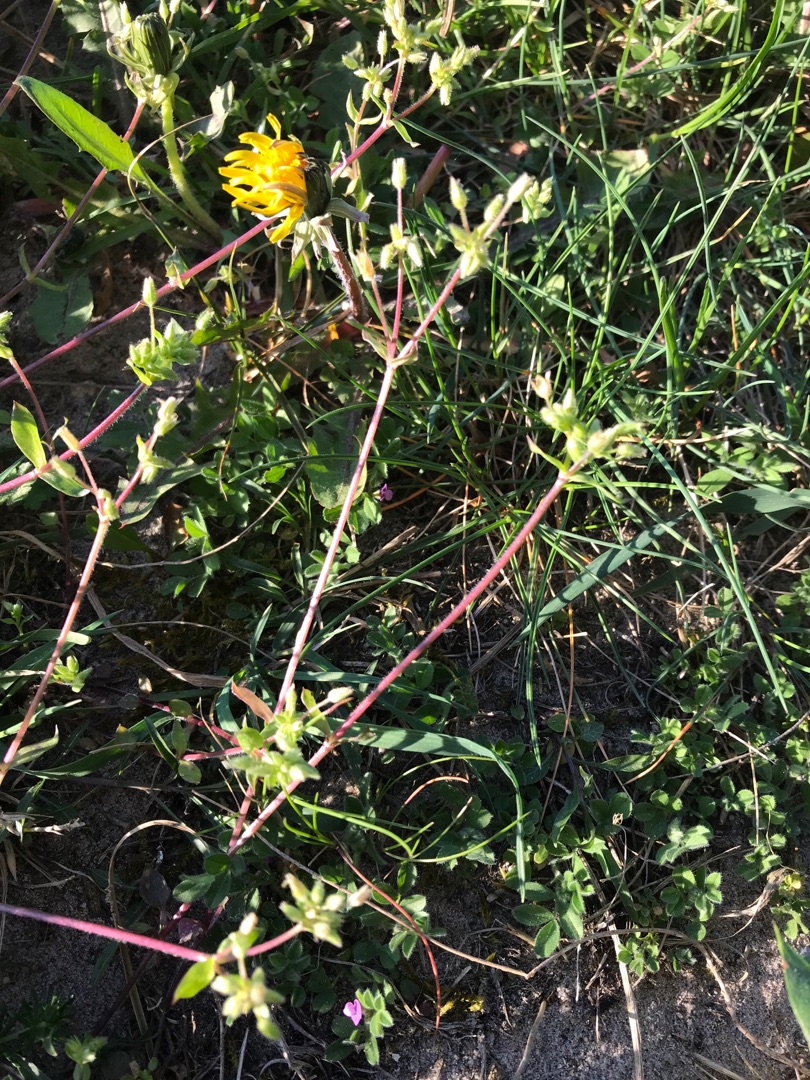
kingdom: Plantae
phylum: Tracheophyta
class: Magnoliopsida
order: Caryophyllales
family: Caryophyllaceae
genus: Stellaria
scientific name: Stellaria apetala
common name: Bleg fuglegræs
